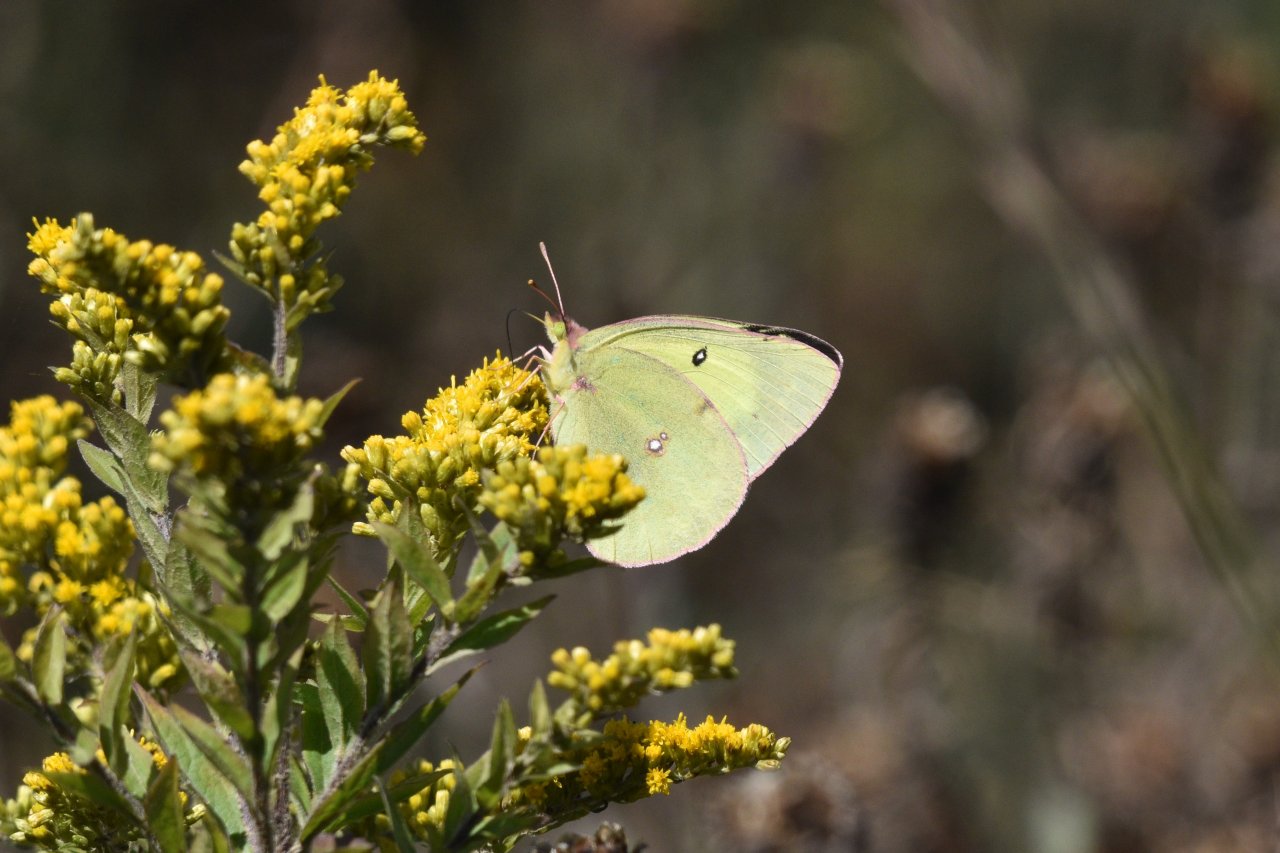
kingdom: Animalia
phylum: Arthropoda
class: Insecta
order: Lepidoptera
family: Pieridae
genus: Colias
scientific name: Colias philodice
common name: Clouded Sulphur
